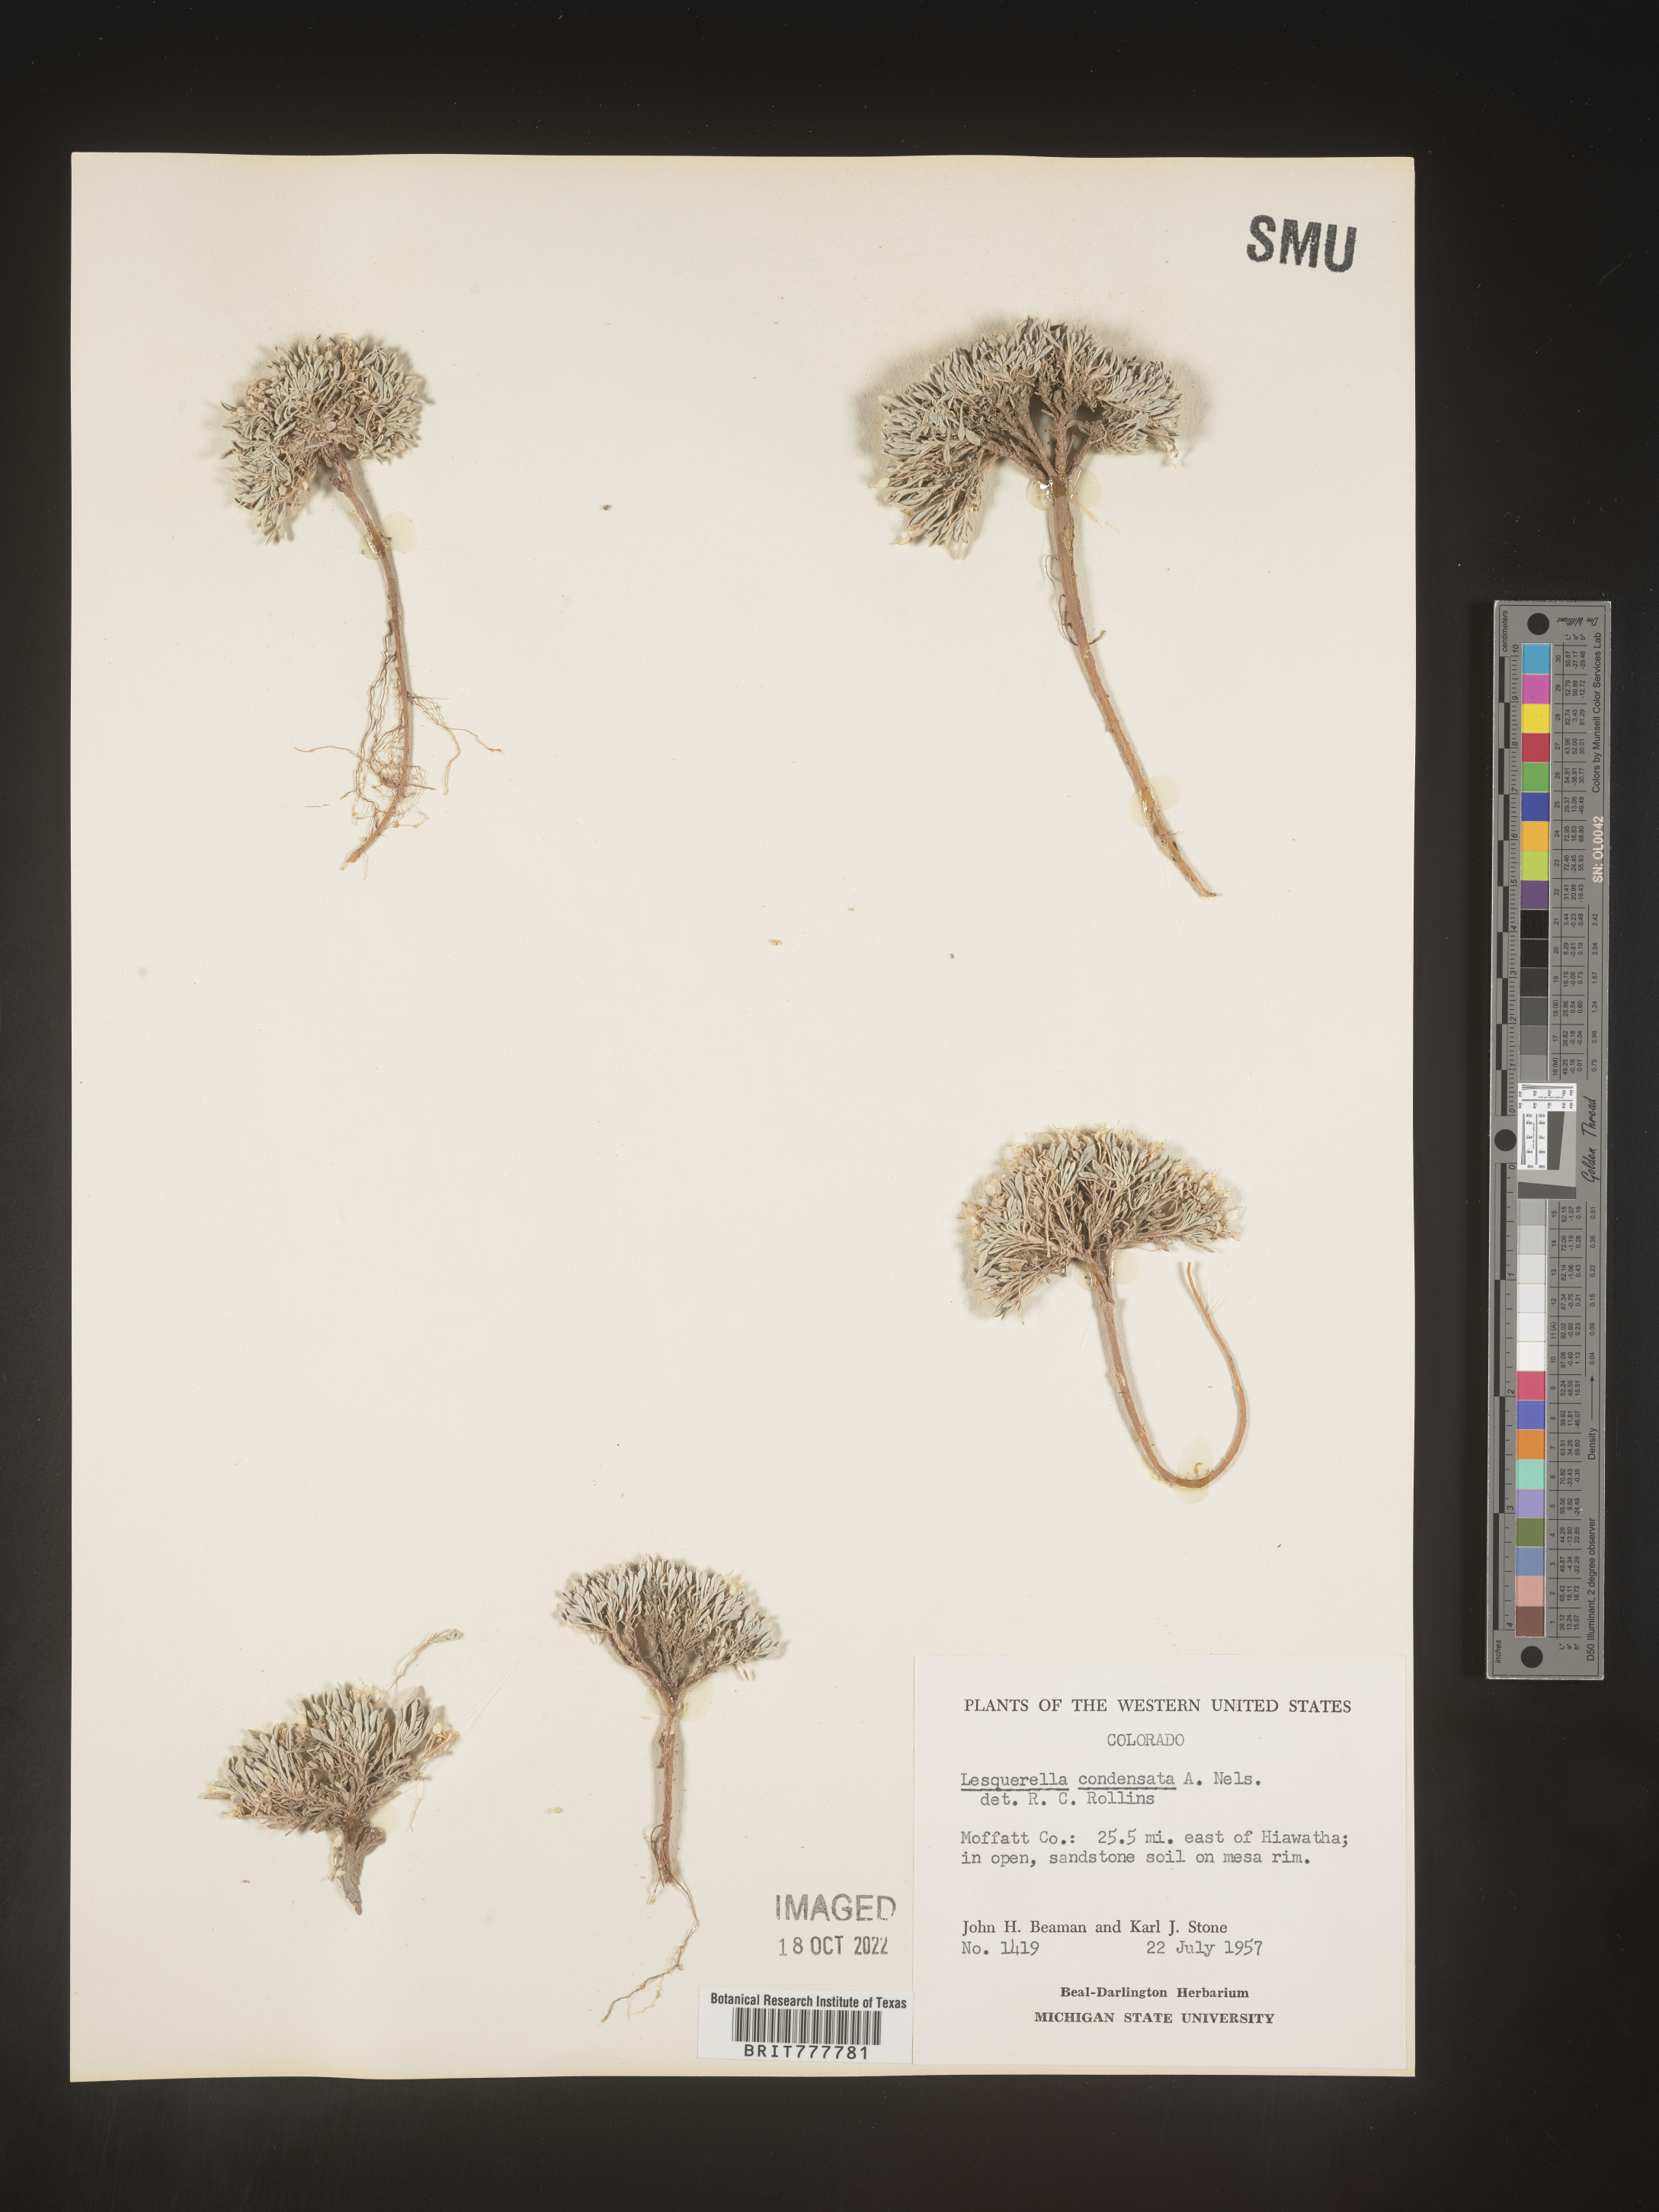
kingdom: Chromista
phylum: Cercozoa
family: Psammonobiotidae
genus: Lesquerella
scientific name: Lesquerella
